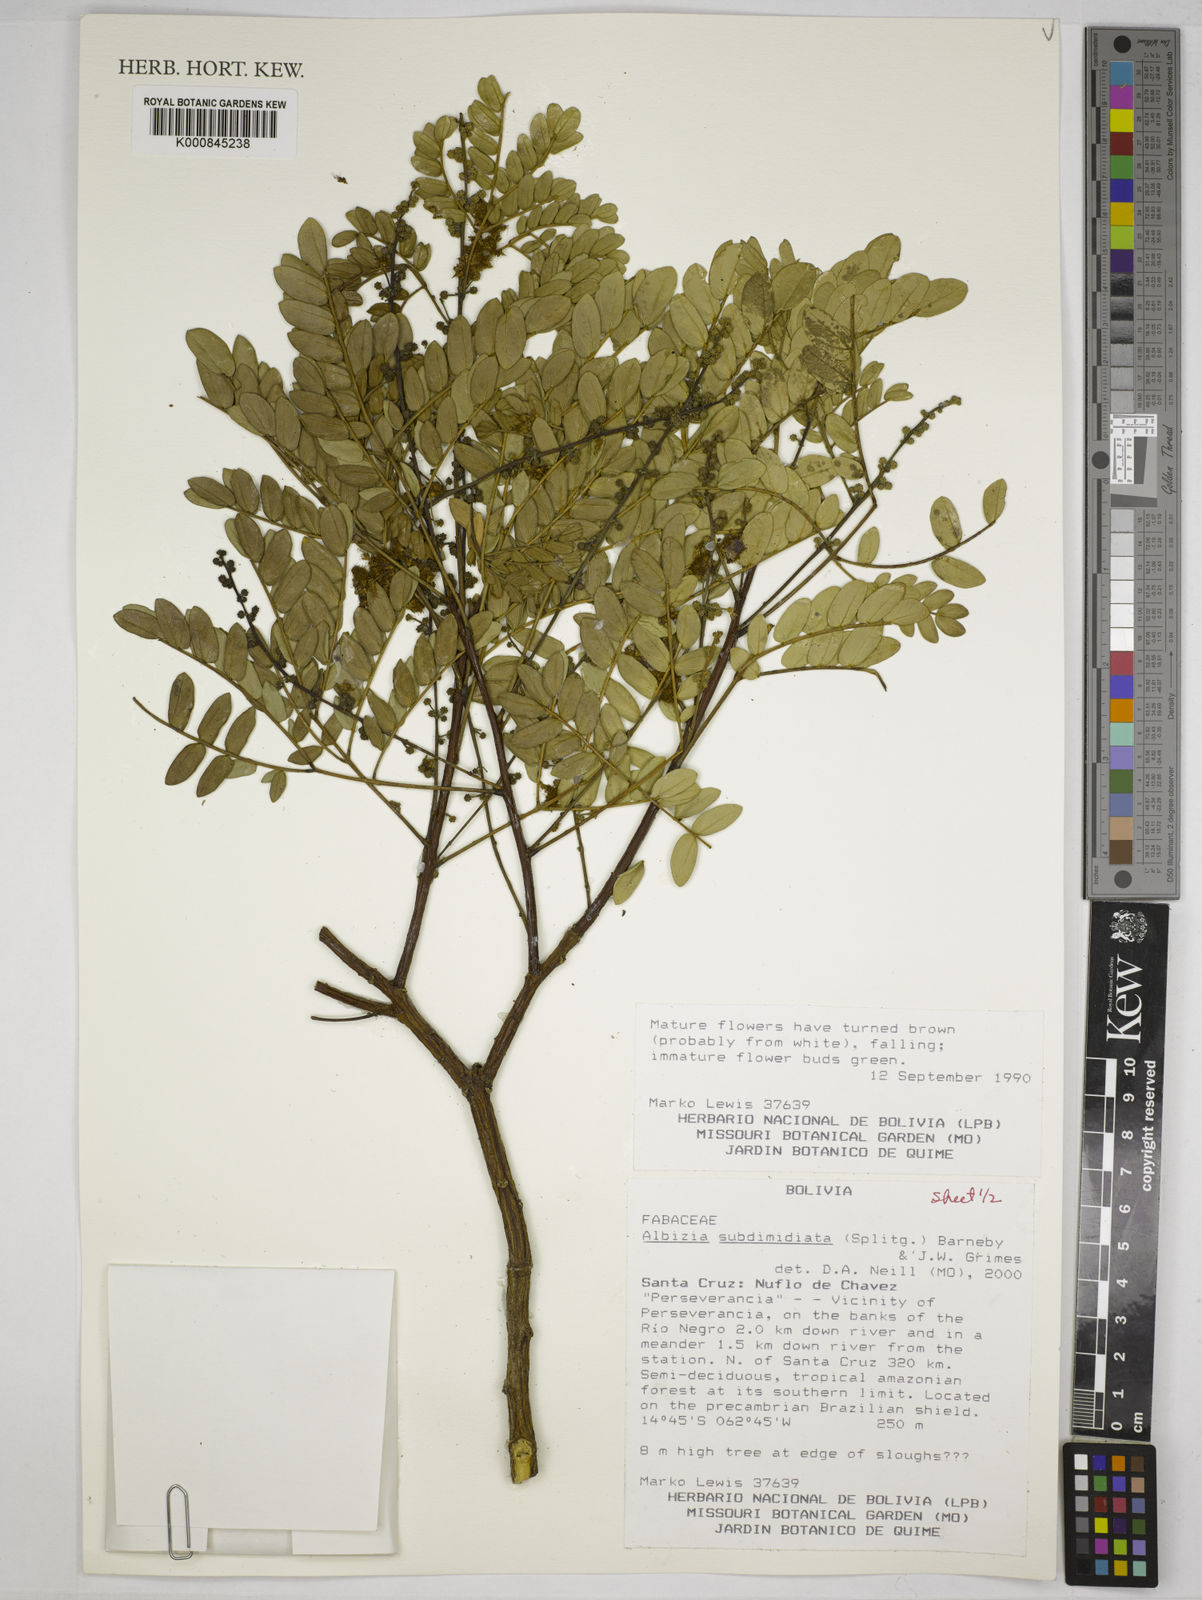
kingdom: Plantae
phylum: Tracheophyta
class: Magnoliopsida
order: Fabales
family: Fabaceae
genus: Albizia
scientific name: Albizia subdimidiata
